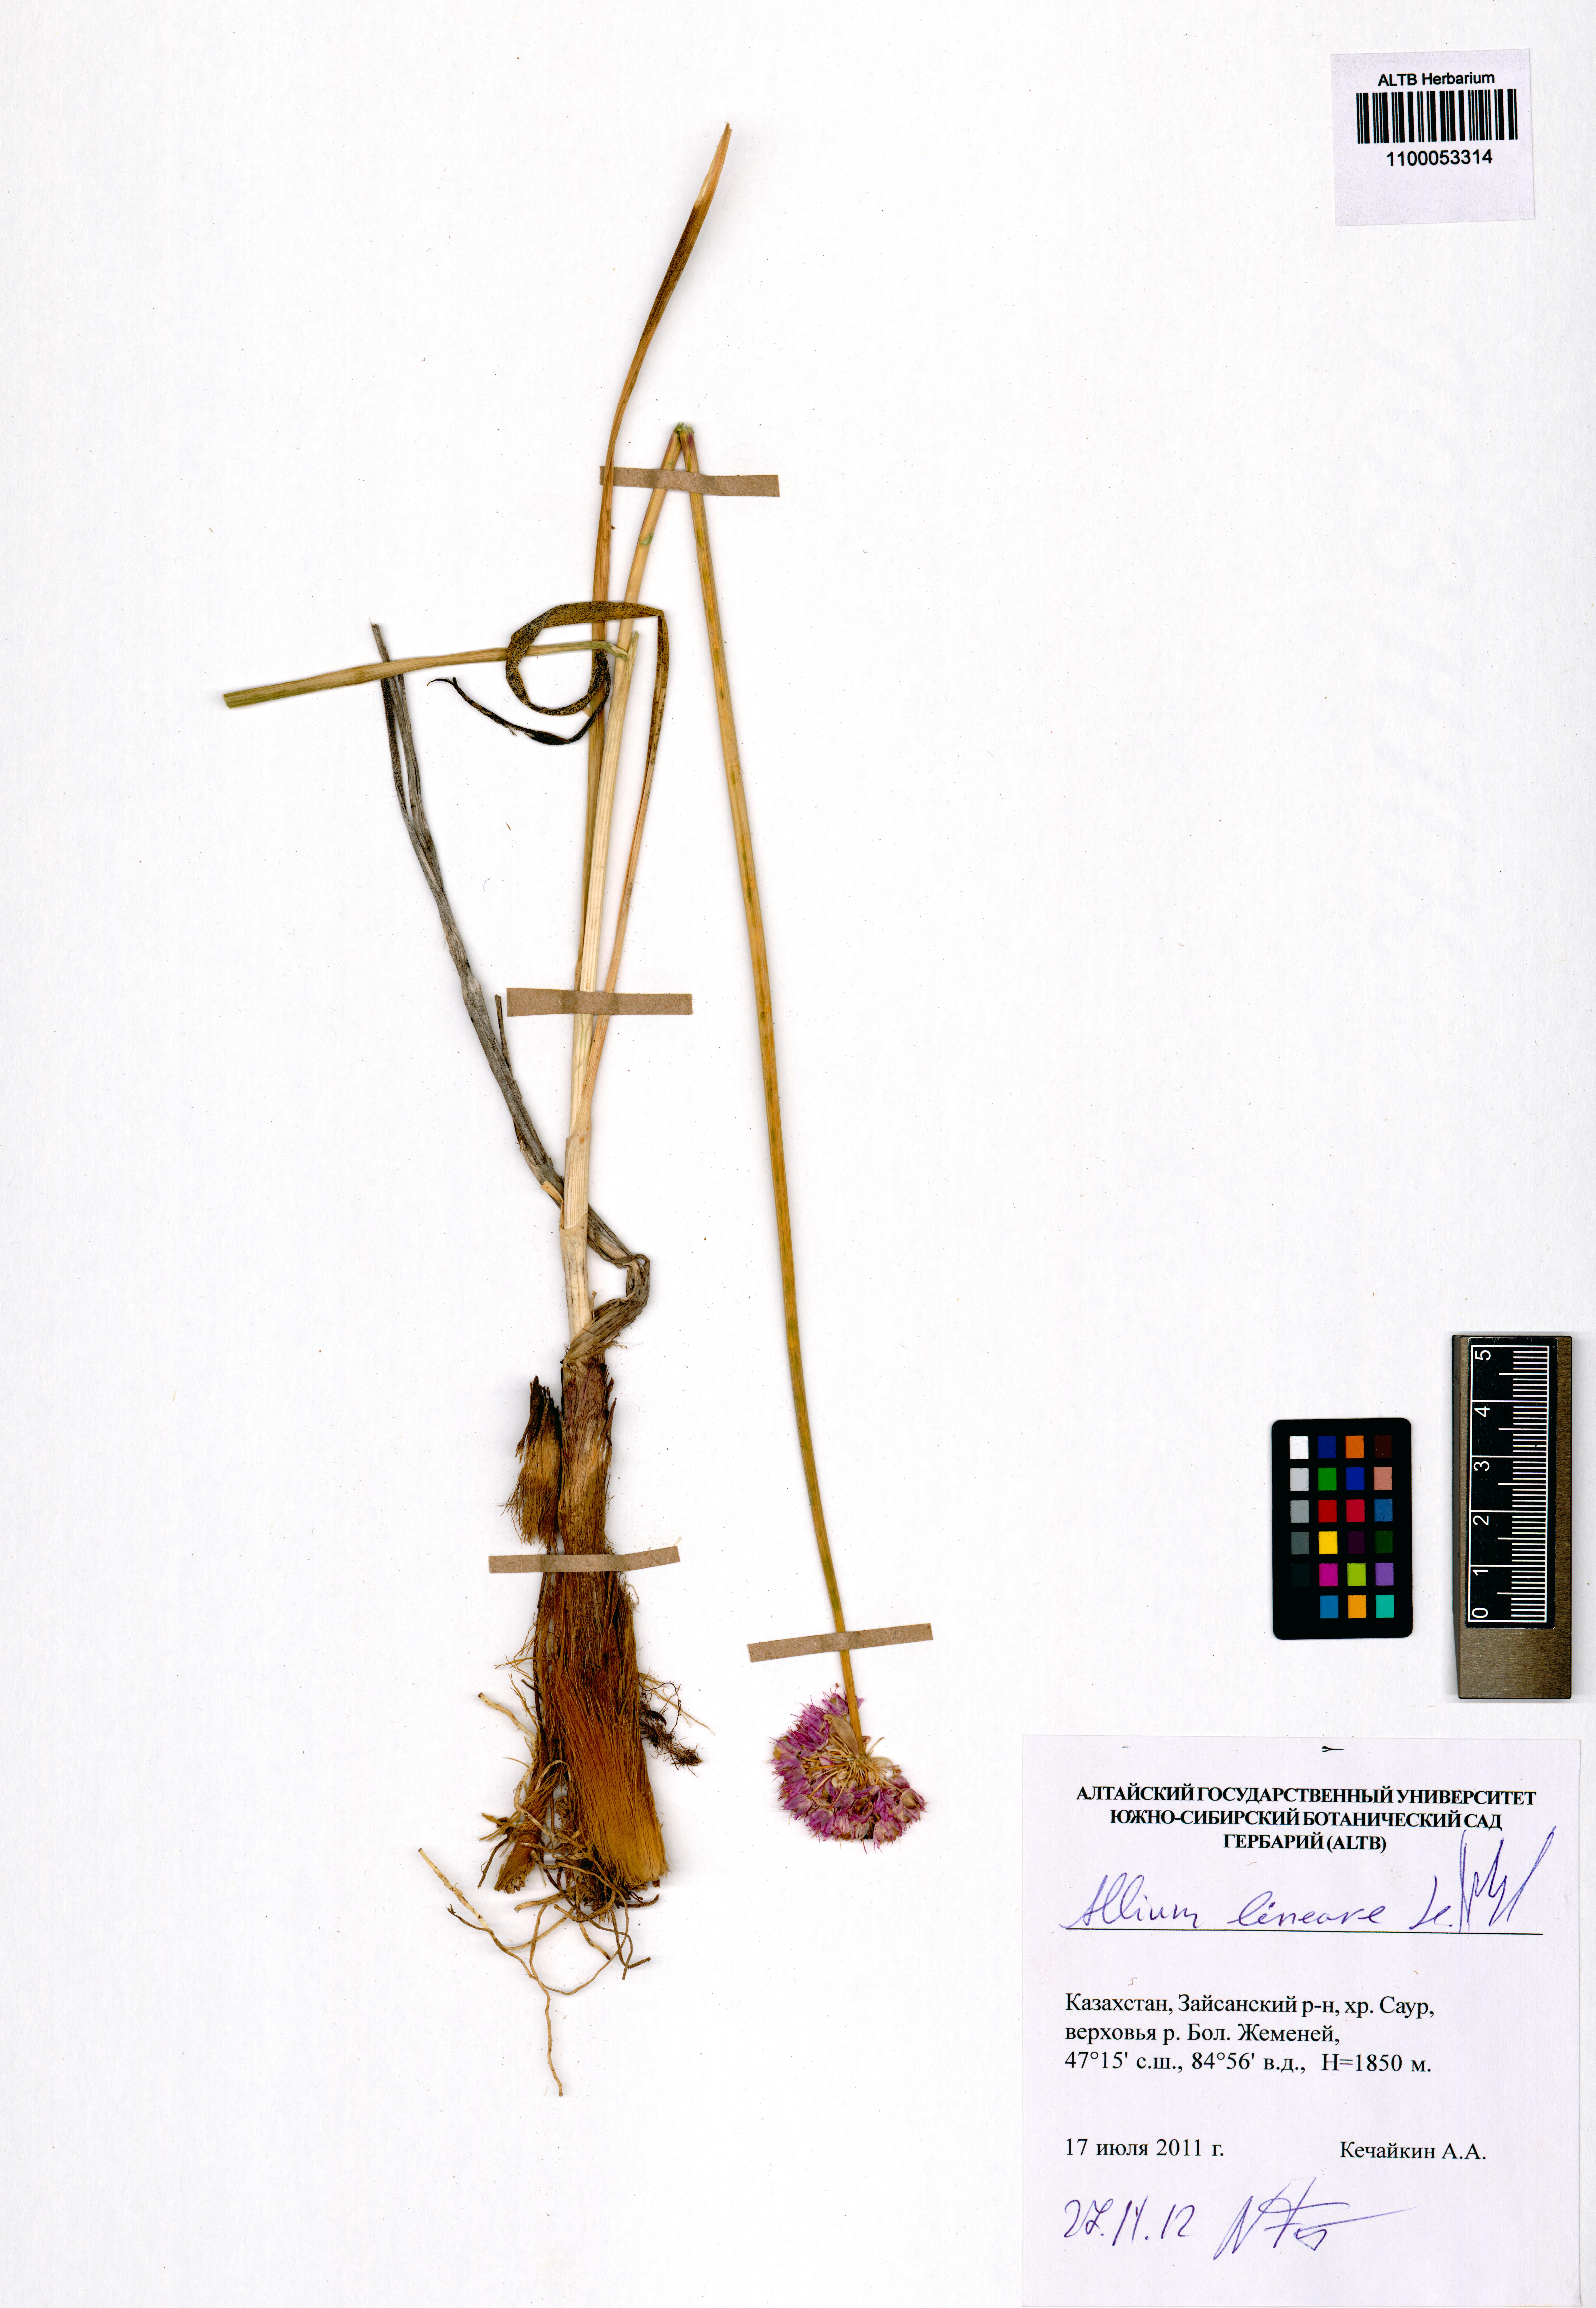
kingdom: Plantae
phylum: Tracheophyta
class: Liliopsida
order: Asparagales
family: Amaryllidaceae
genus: Allium
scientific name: Allium lineare
